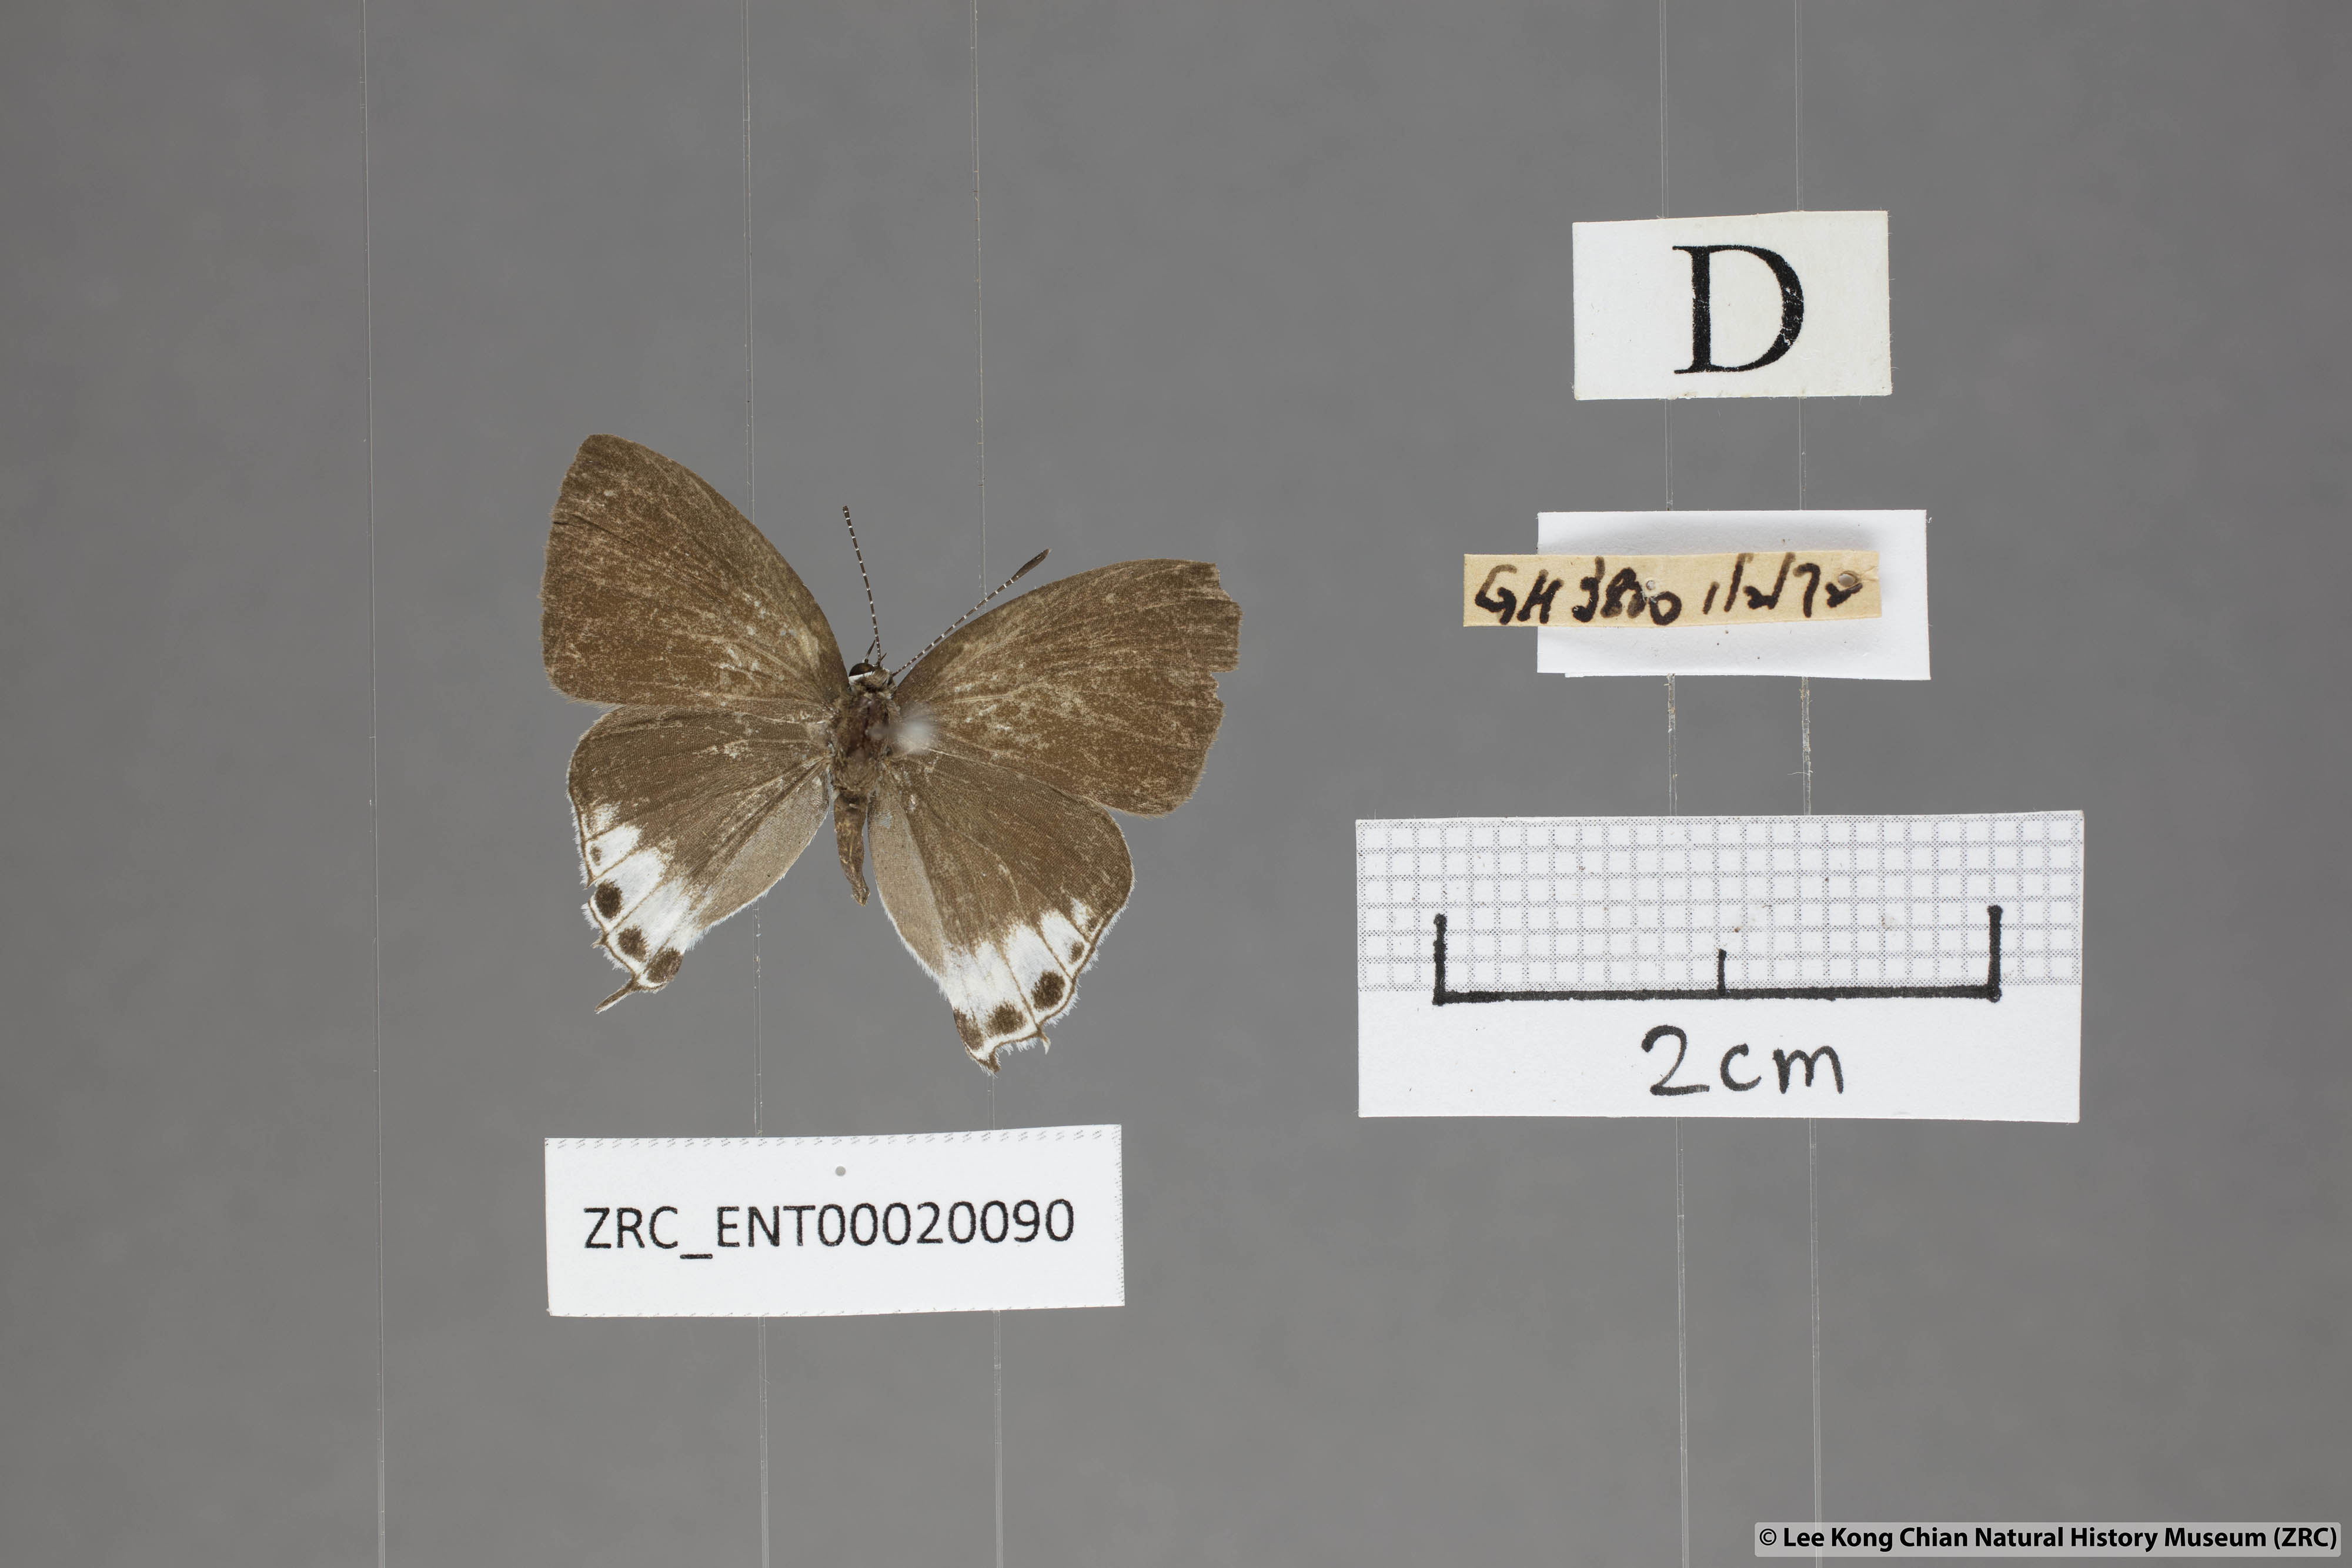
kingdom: Animalia
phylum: Arthropoda
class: Insecta
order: Lepidoptera
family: Lycaenidae
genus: Hypolycaena
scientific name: Hypolycaena amabilis
